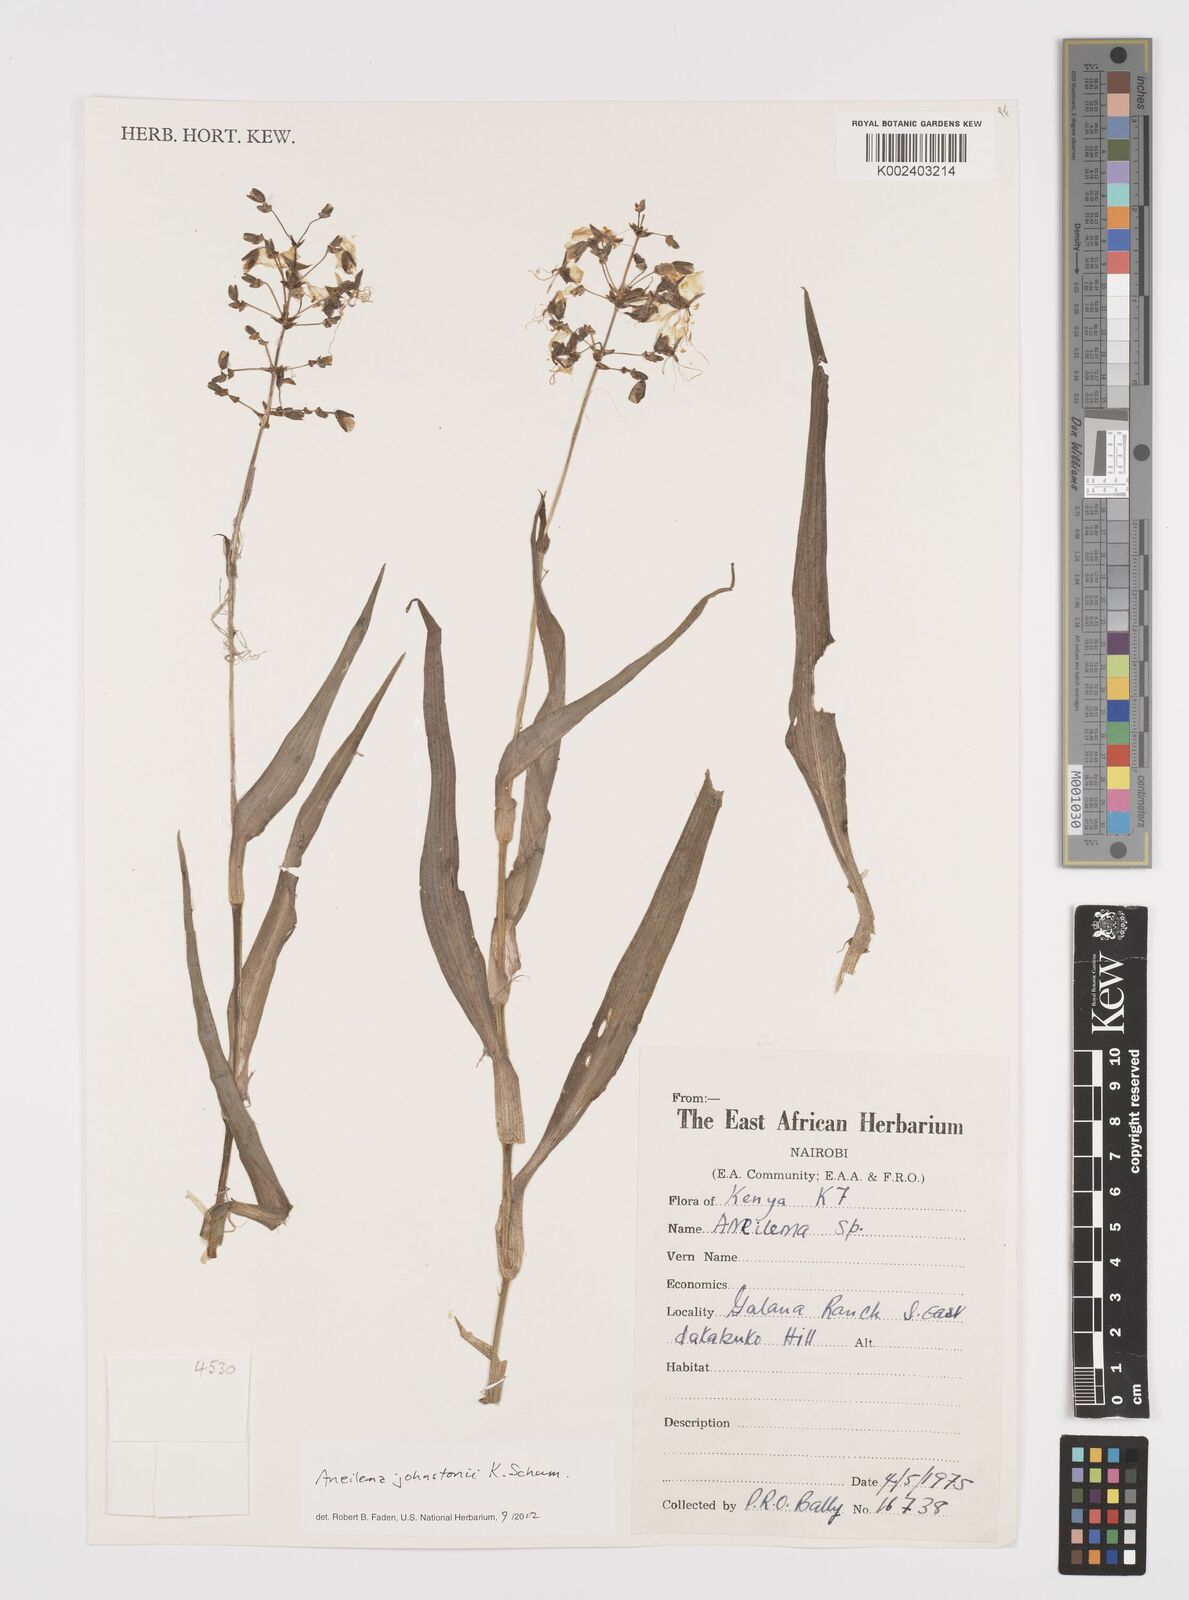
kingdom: Plantae
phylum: Tracheophyta
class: Liliopsida
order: Commelinales
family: Commelinaceae
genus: Aneilema
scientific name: Aneilema johnstonii
